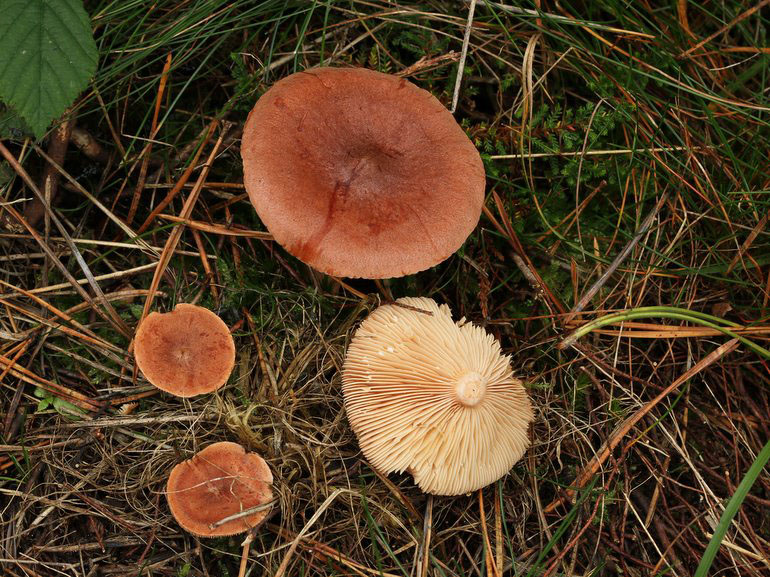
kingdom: Fungi
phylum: Basidiomycota
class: Agaricomycetes
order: Russulales
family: Russulaceae
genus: Lactarius
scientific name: Lactarius rufus
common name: rødbrun mælkehat
